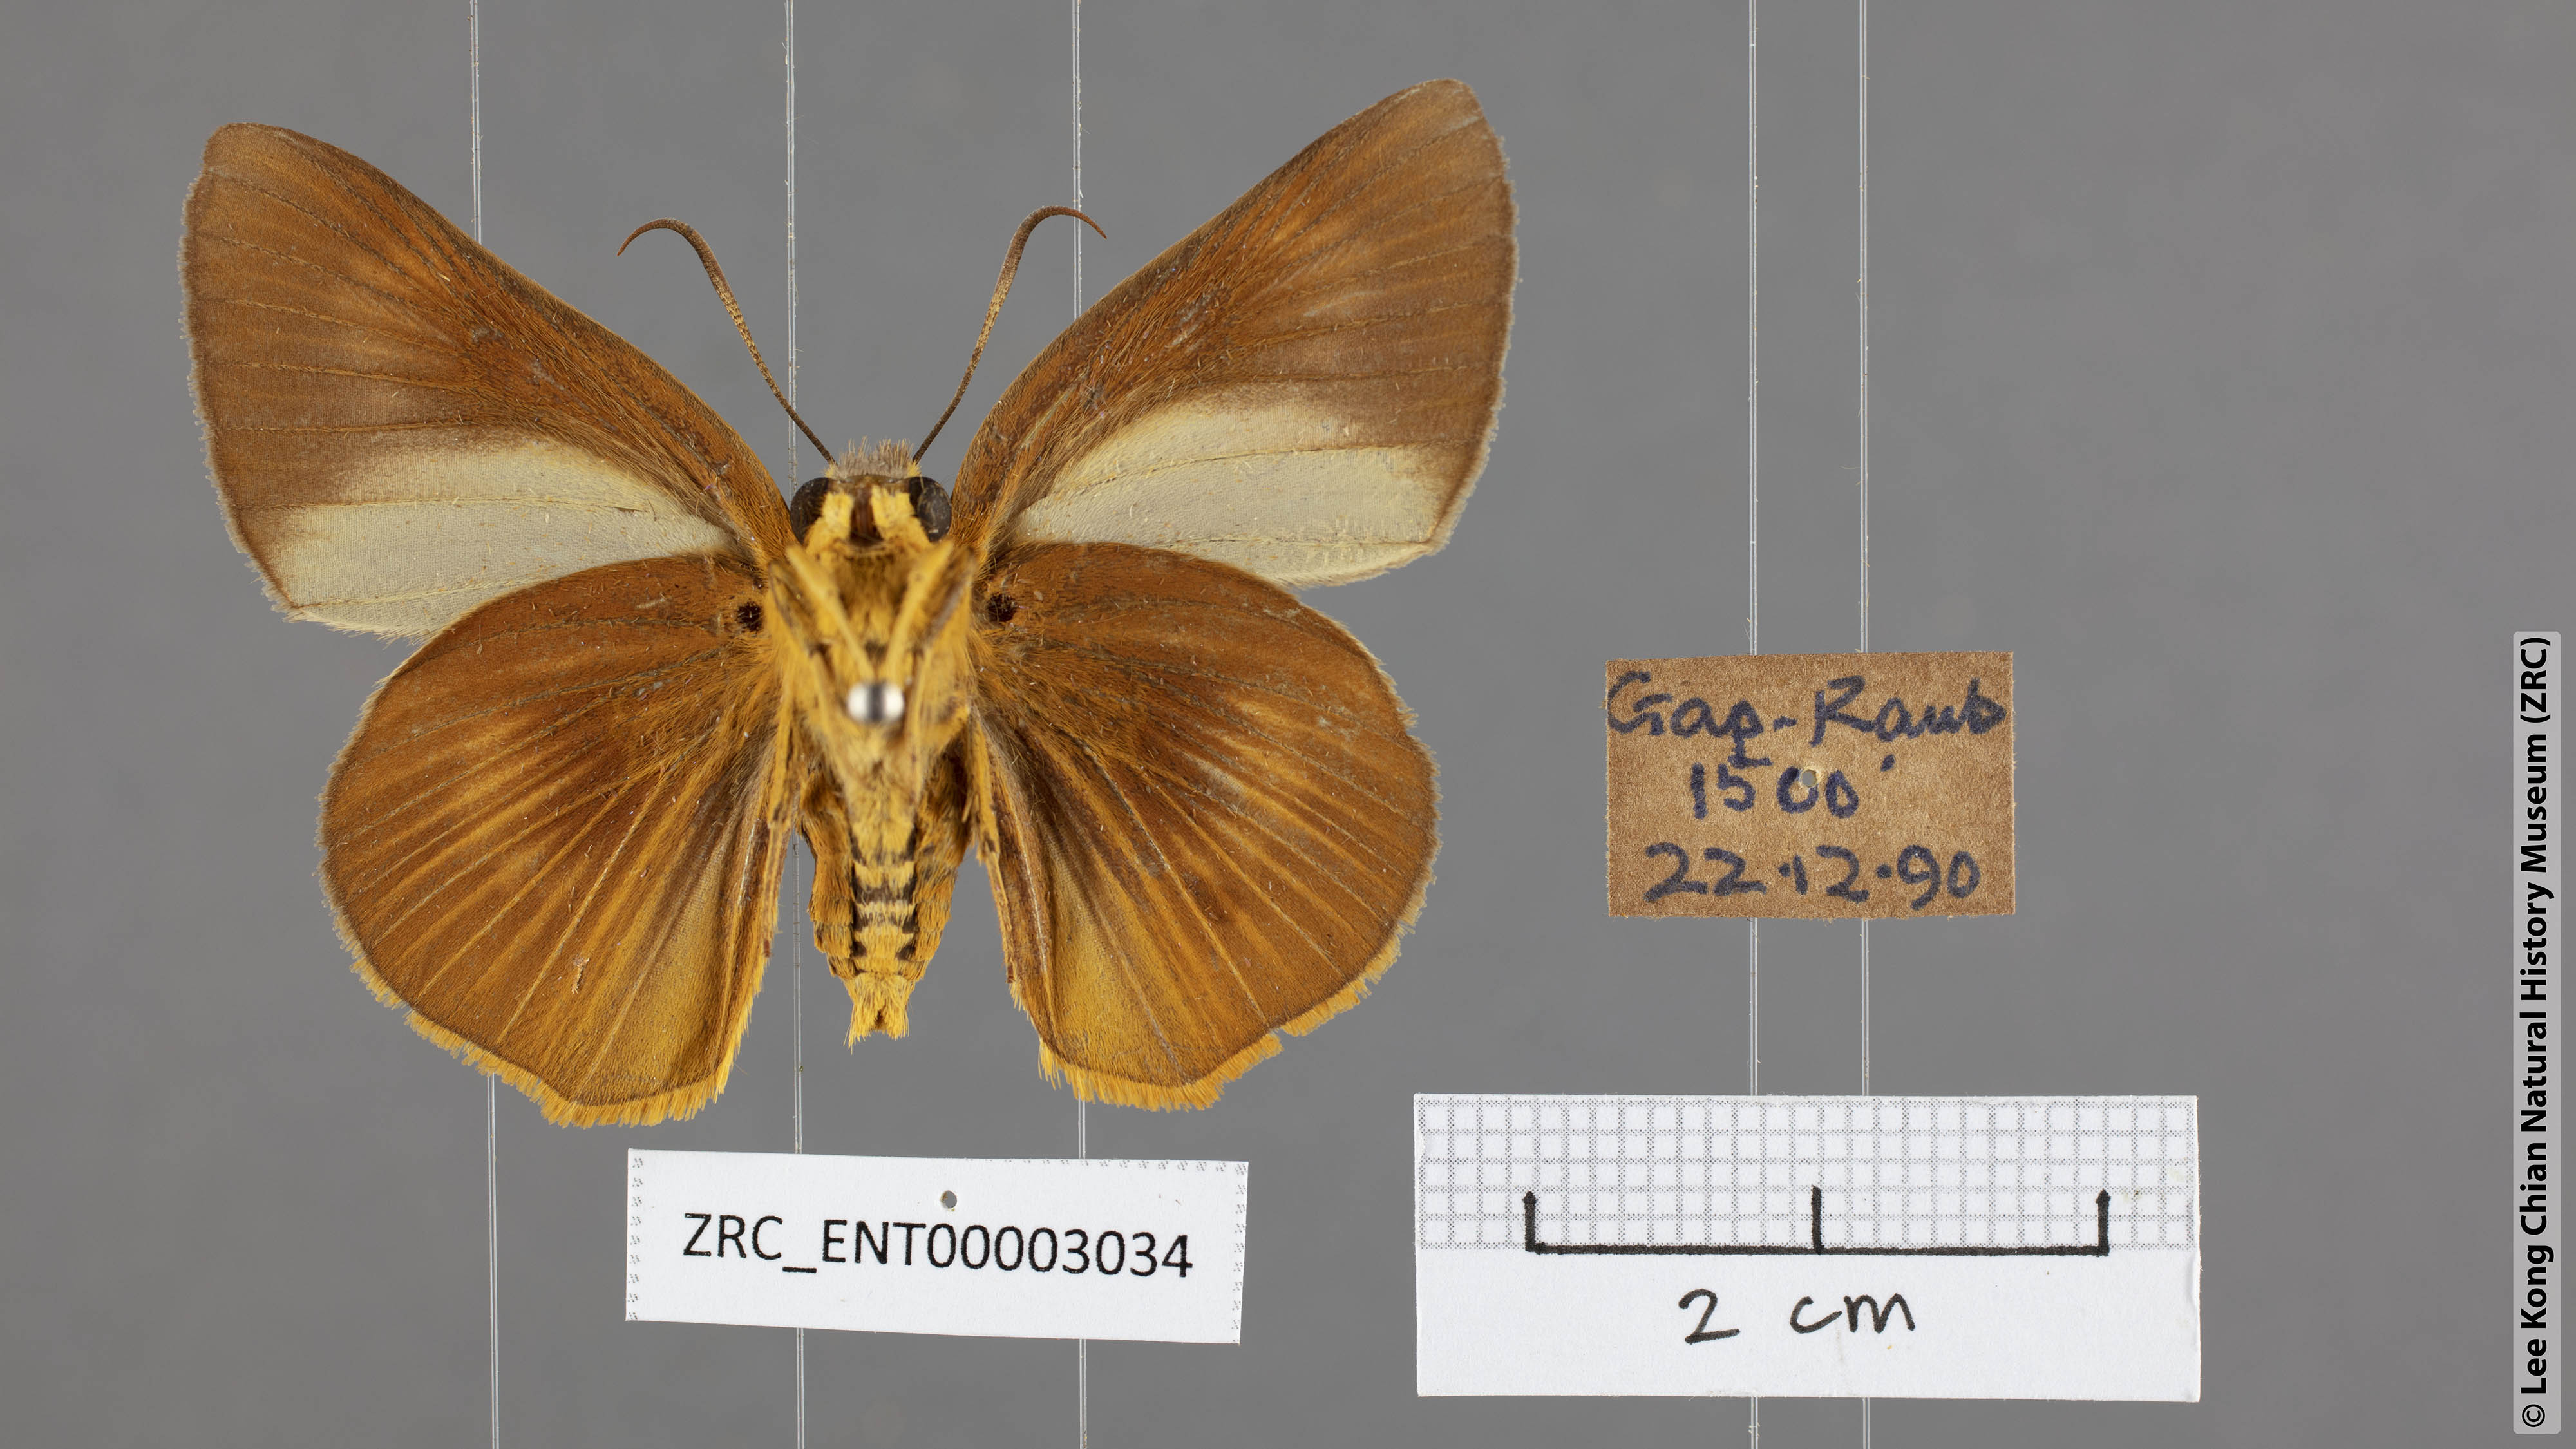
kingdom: Animalia
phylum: Arthropoda
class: Insecta
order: Lepidoptera
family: Hesperiidae
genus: Bibasis
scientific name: Bibasis Burara harisa
